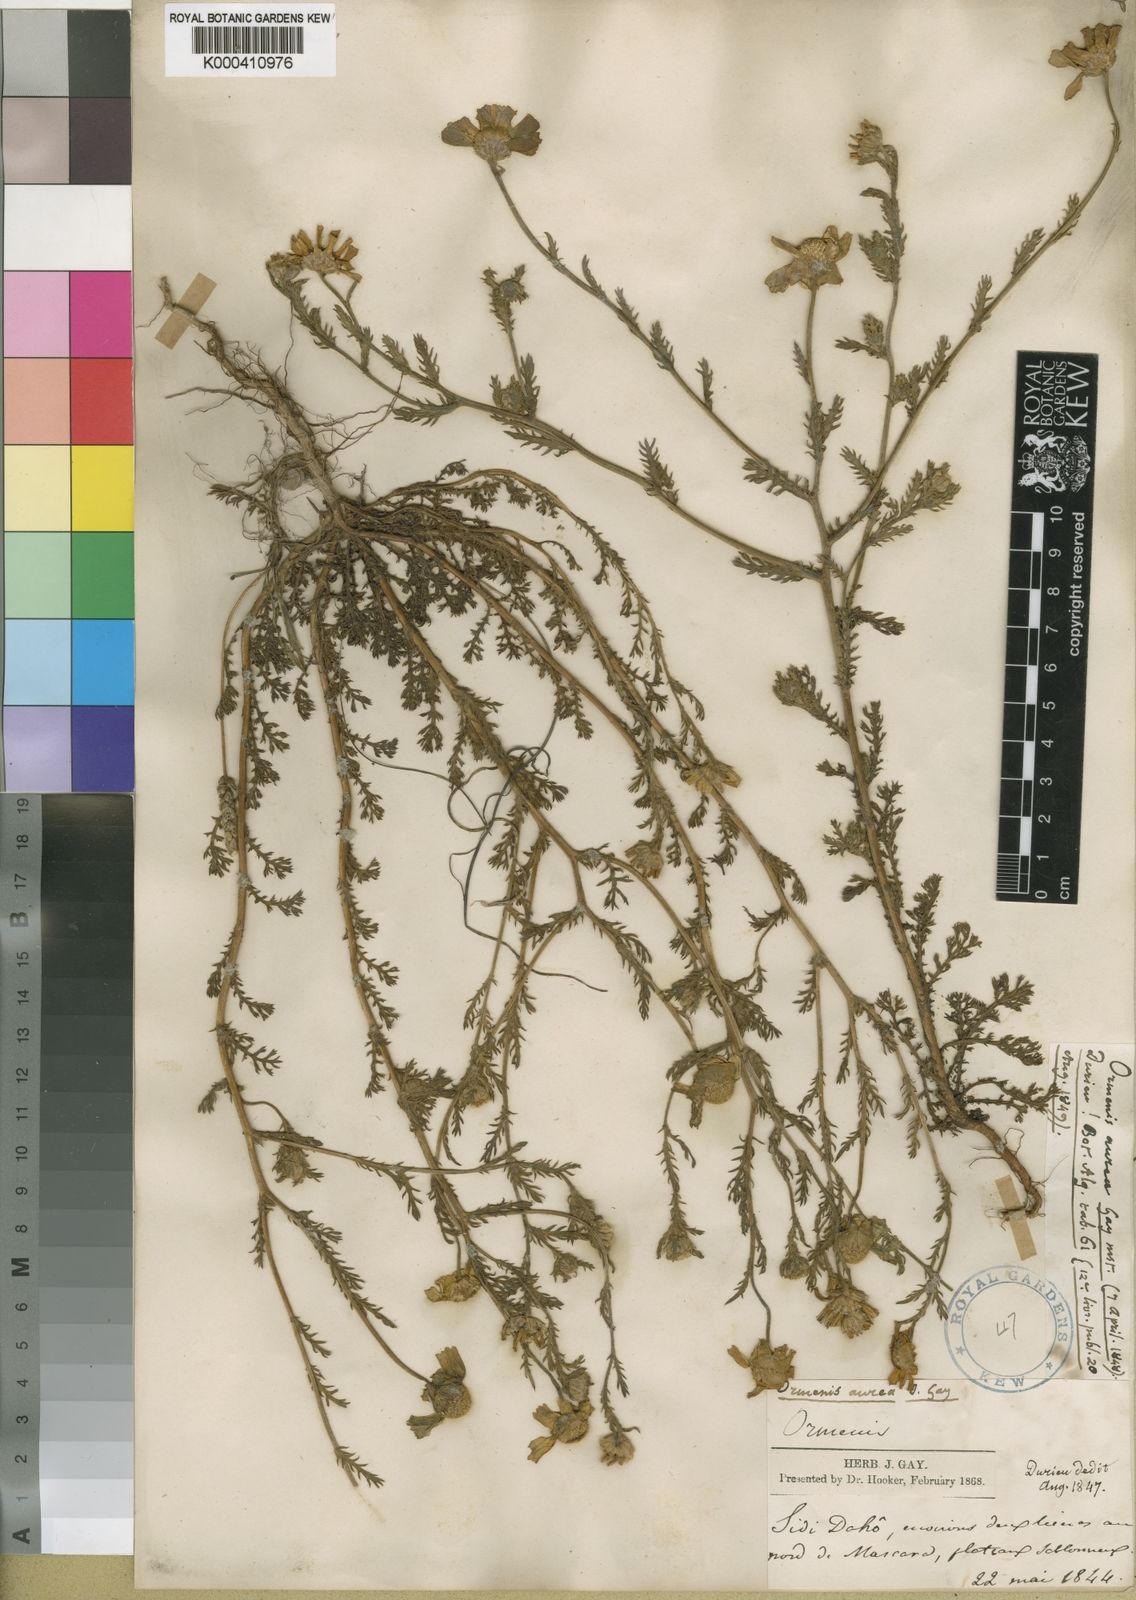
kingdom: Plantae
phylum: Tracheophyta
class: Magnoliopsida
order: Asterales
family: Asteraceae
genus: Chamaemelum
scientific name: Chamaemelum nobile
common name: Roman chamomile
